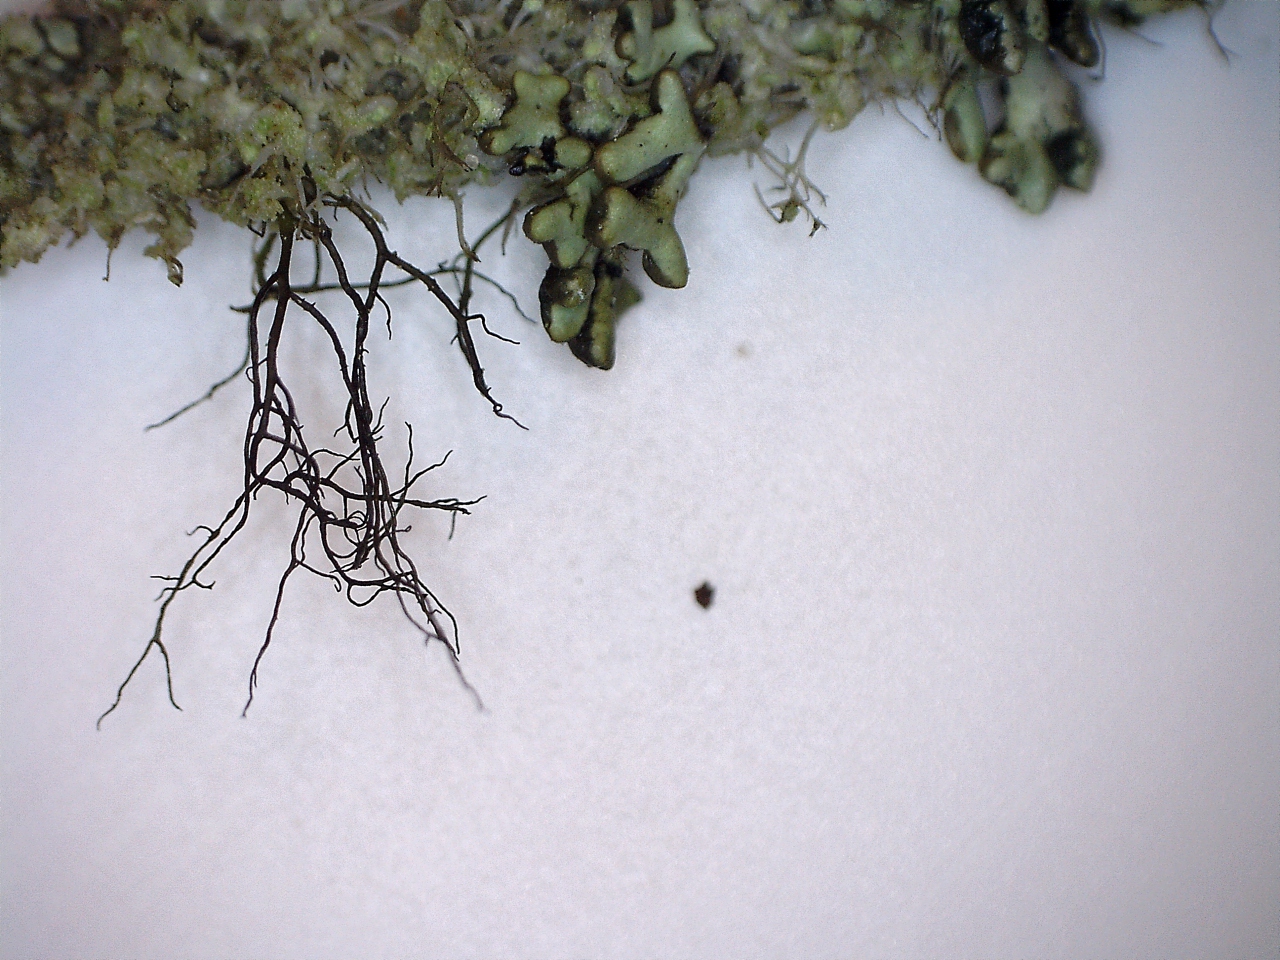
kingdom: Fungi
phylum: Ascomycota
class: Lecanoromycetes
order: Lecanorales
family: Parmeliaceae
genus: Bryoria
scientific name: Bryoria
